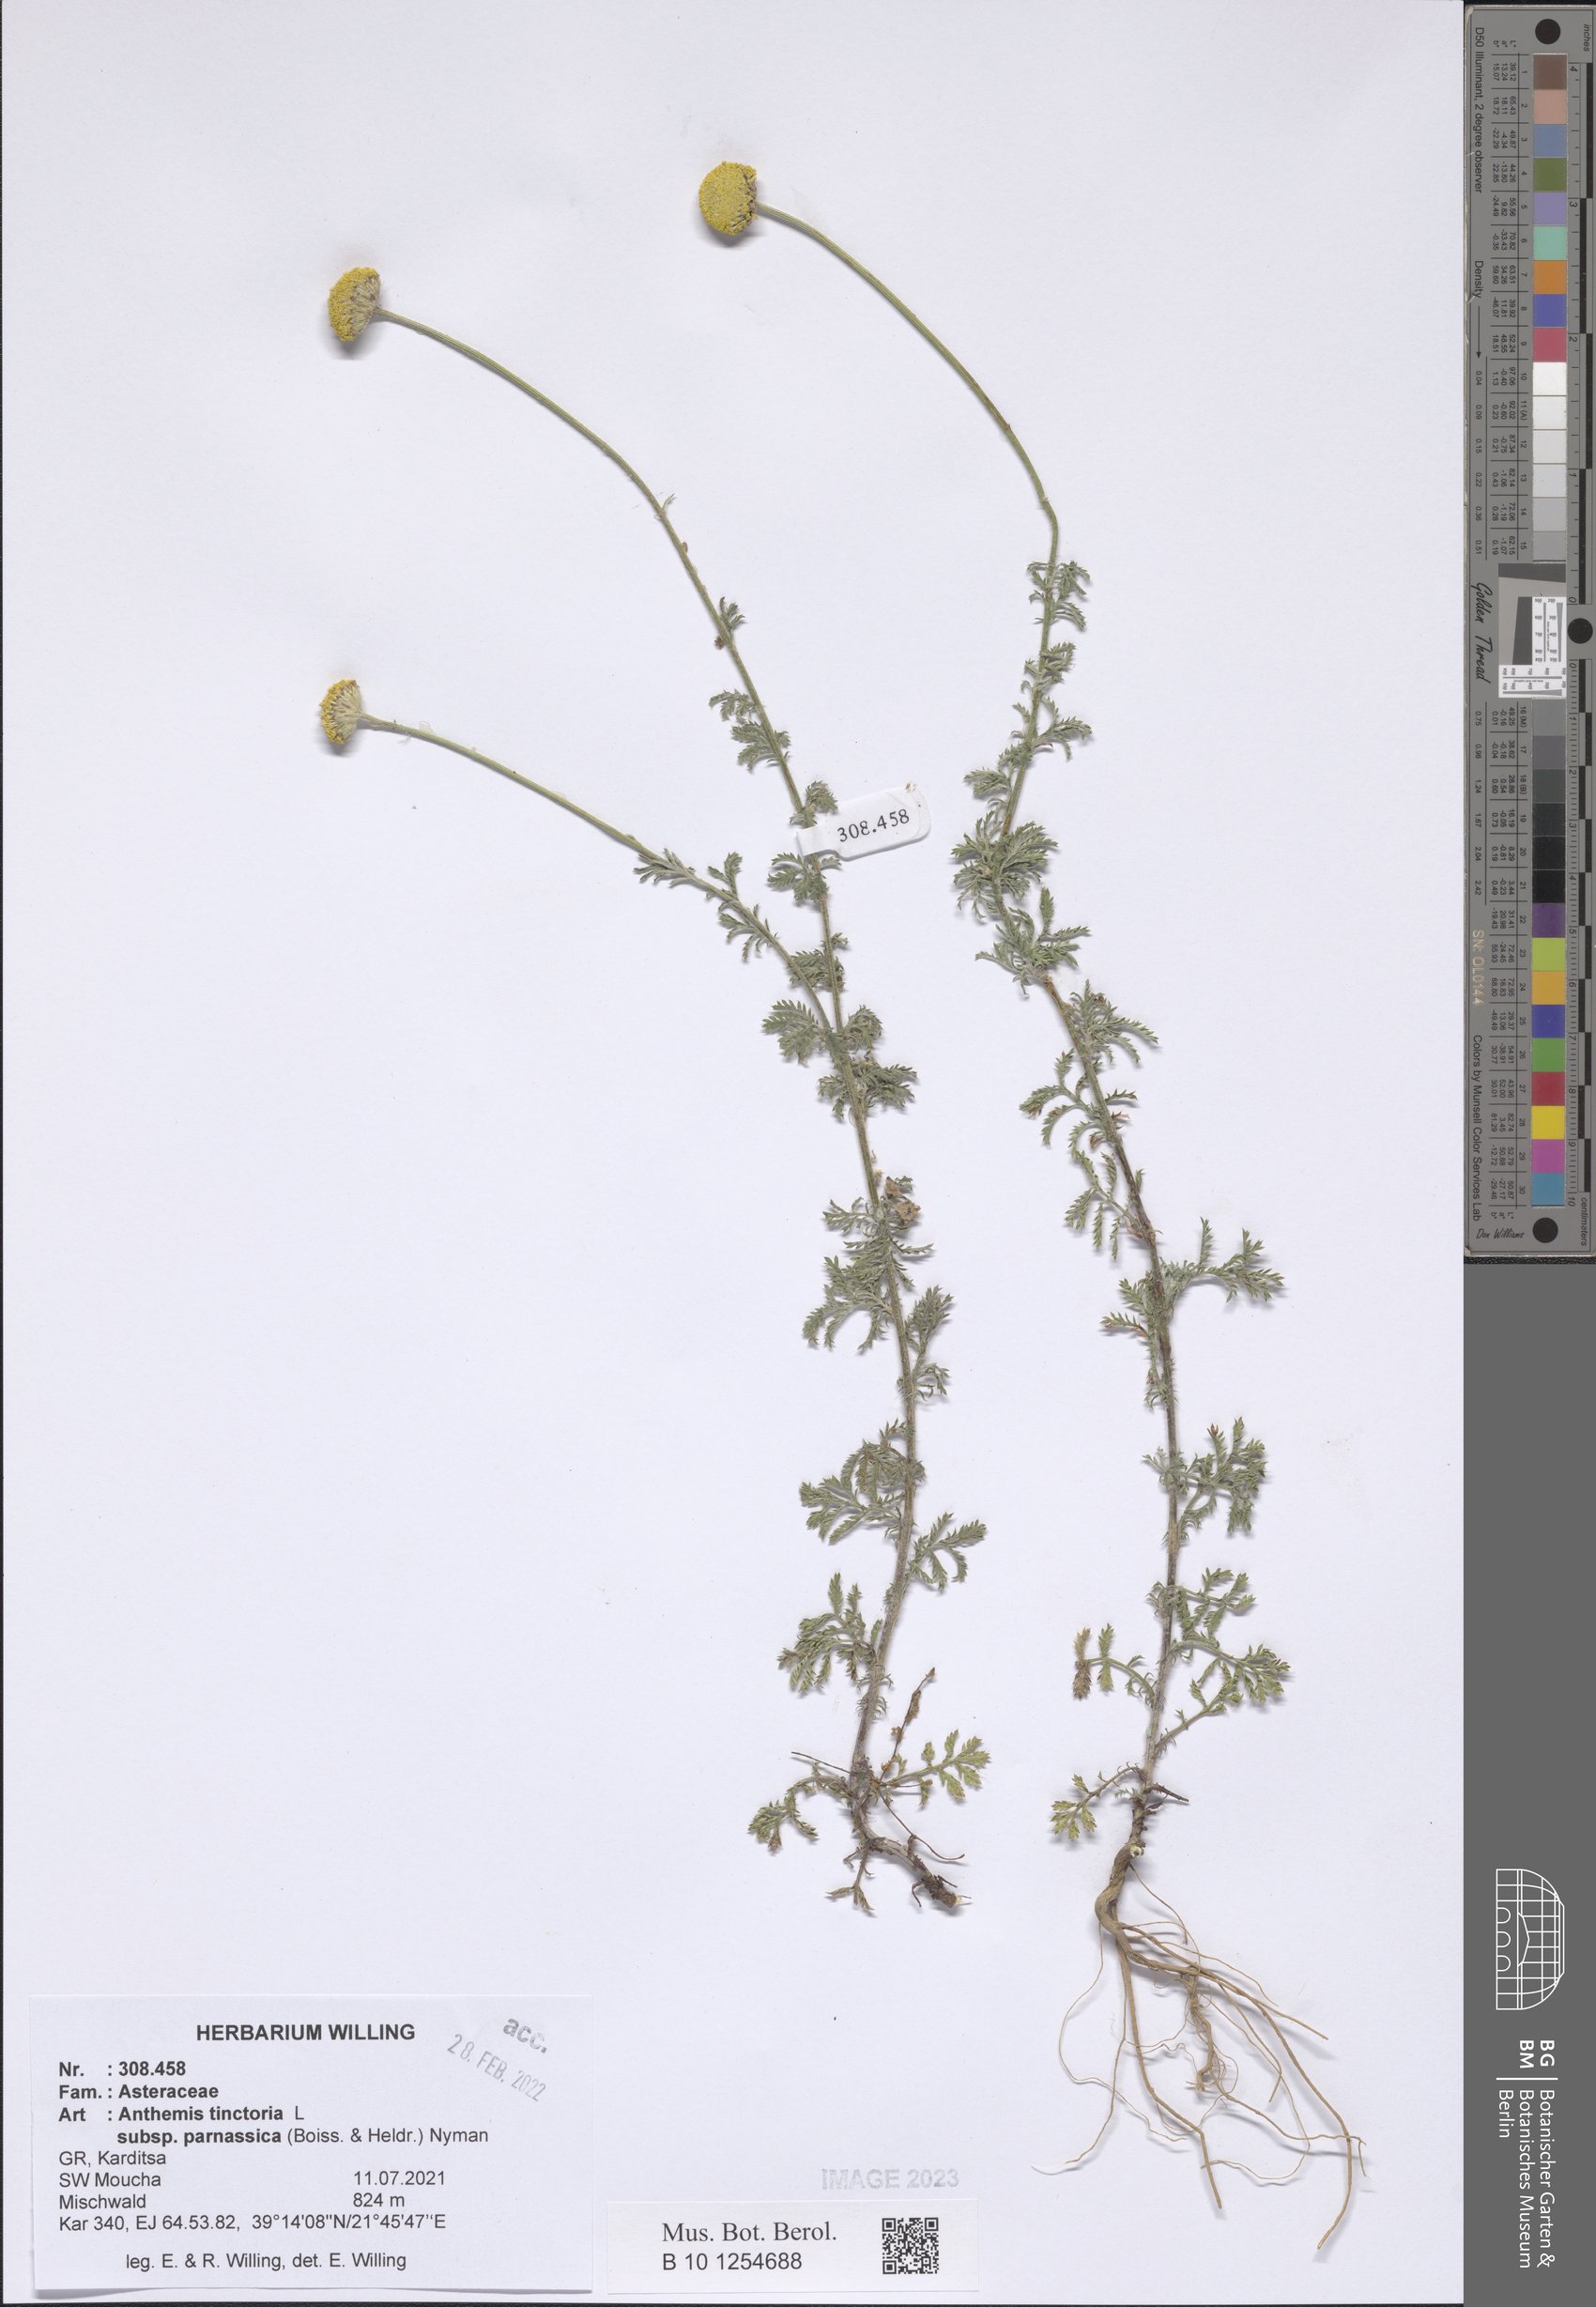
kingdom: Plantae
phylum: Tracheophyta
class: Magnoliopsida
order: Asterales
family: Asteraceae
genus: Cota
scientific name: Cota tinctoria
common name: Golden chamomile
